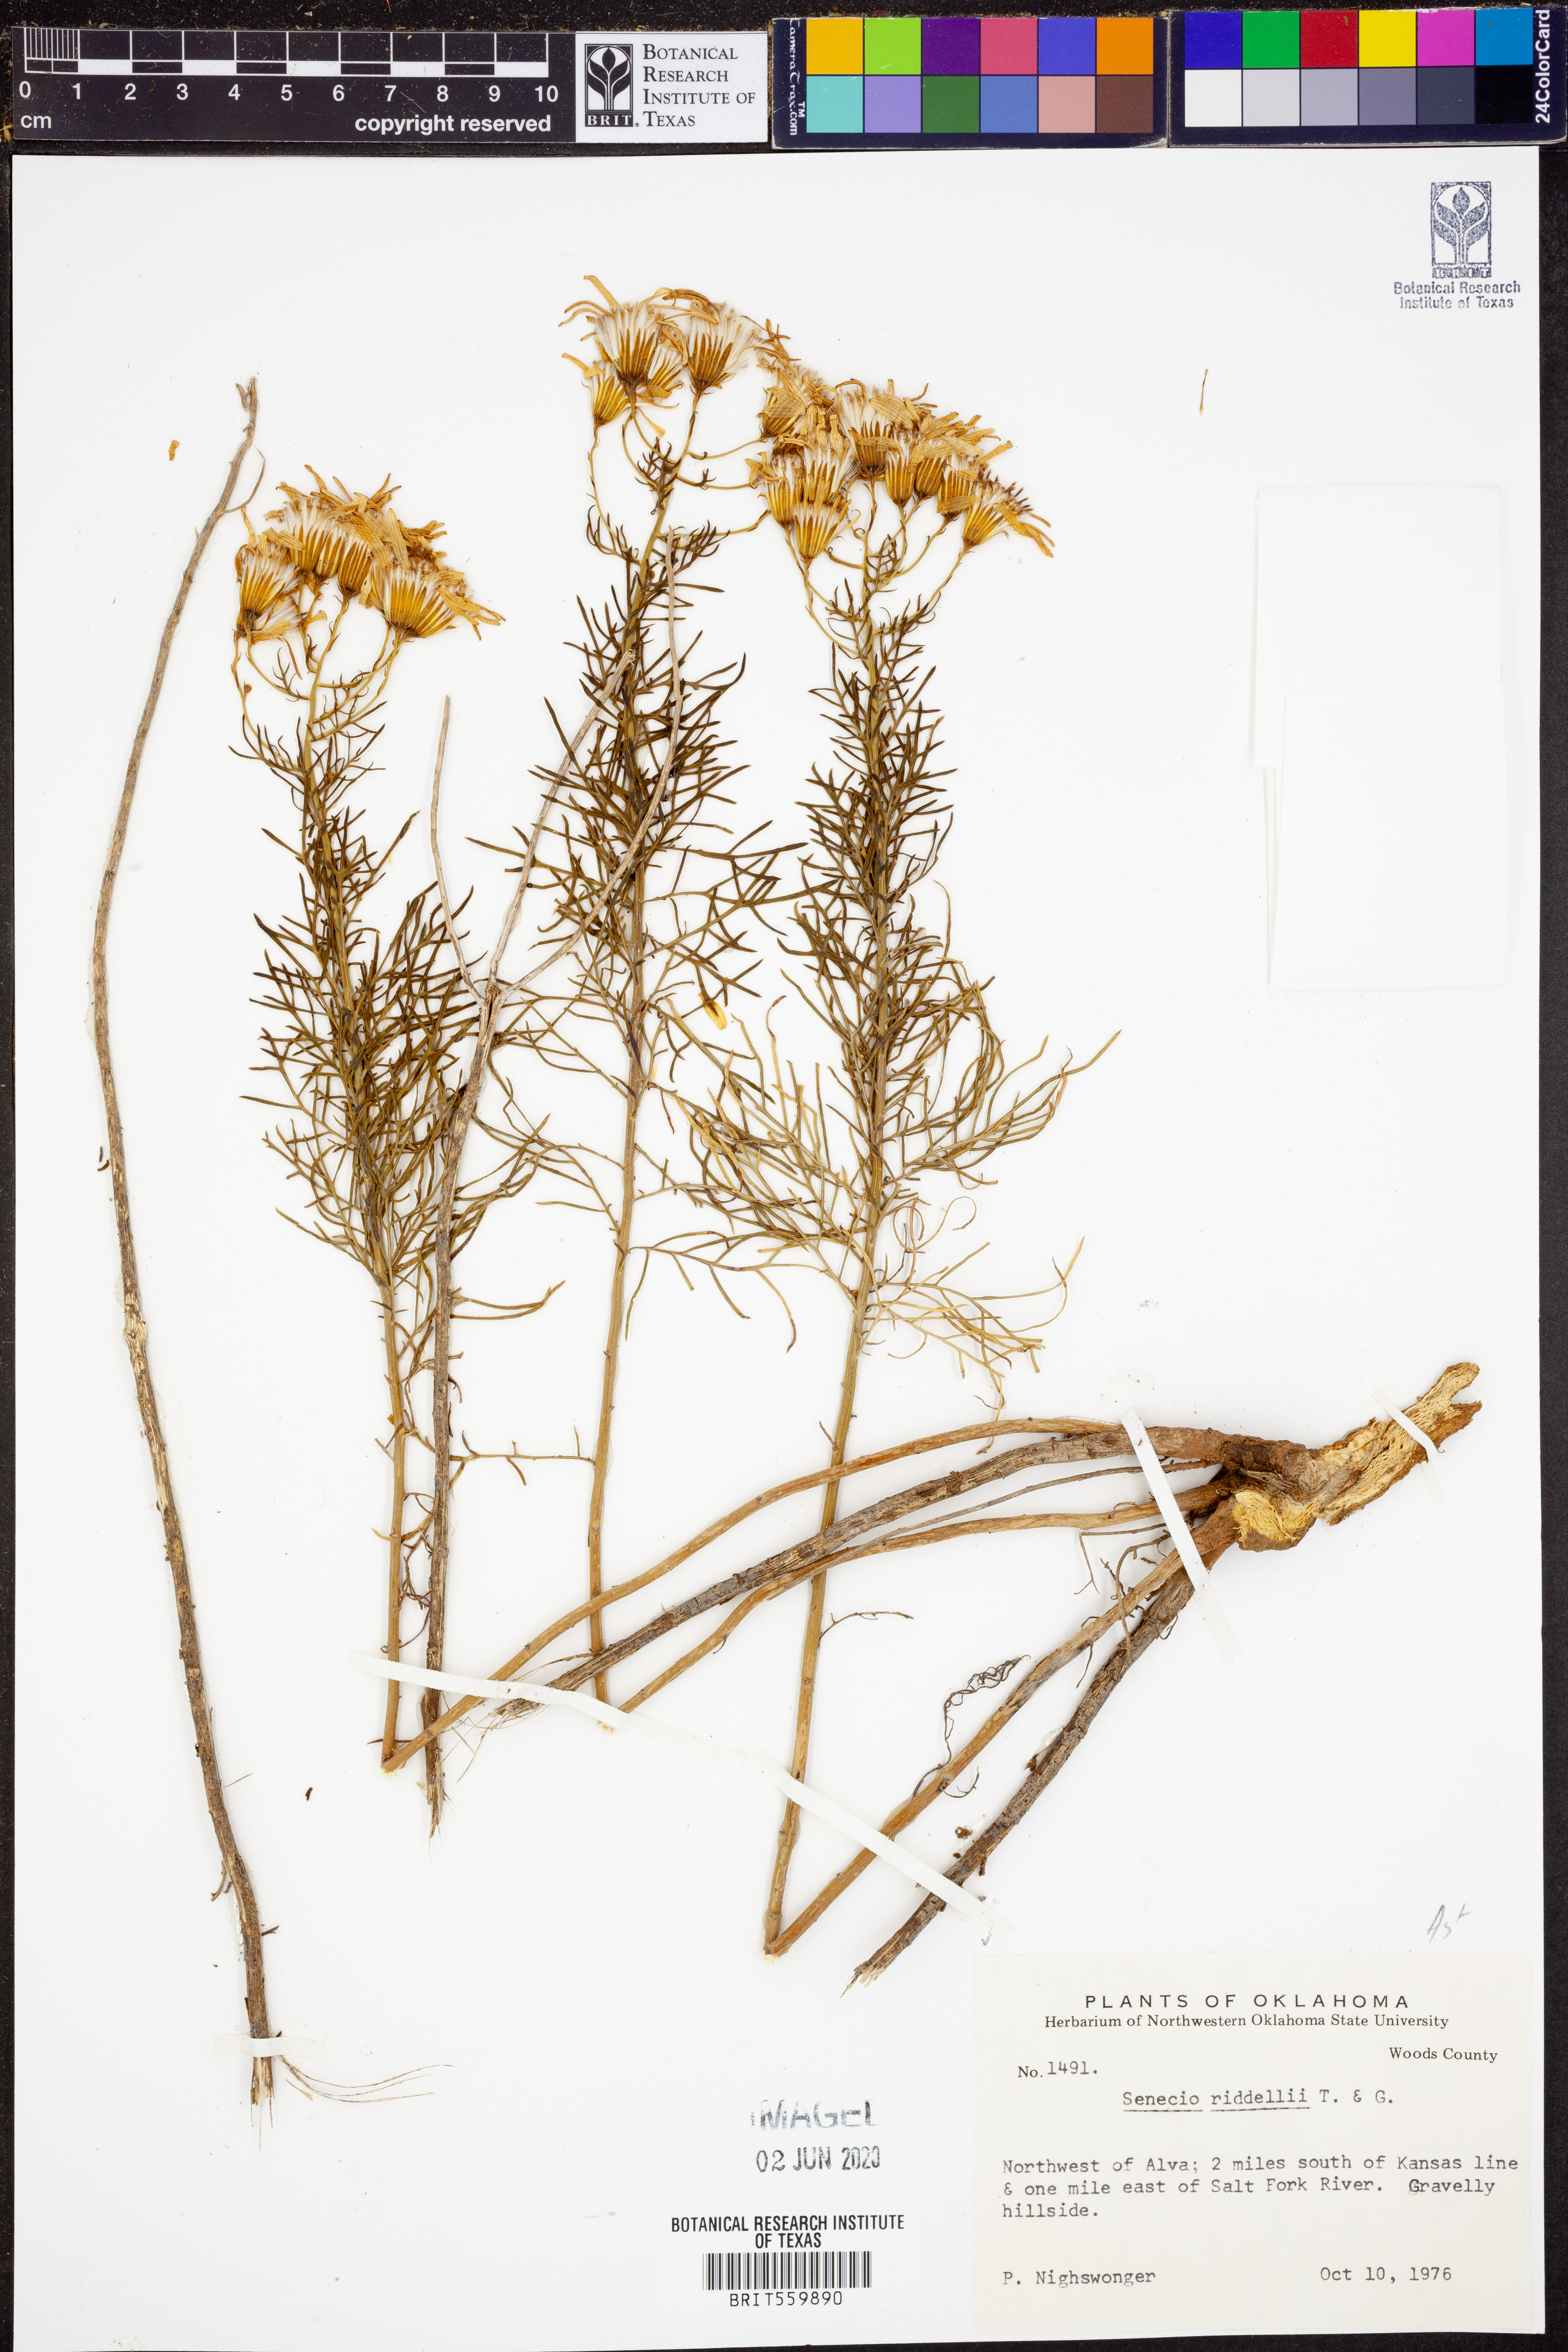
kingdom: Plantae
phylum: Tracheophyta
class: Magnoliopsida
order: Asterales
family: Asteraceae
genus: Senecio
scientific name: Senecio riddellii
